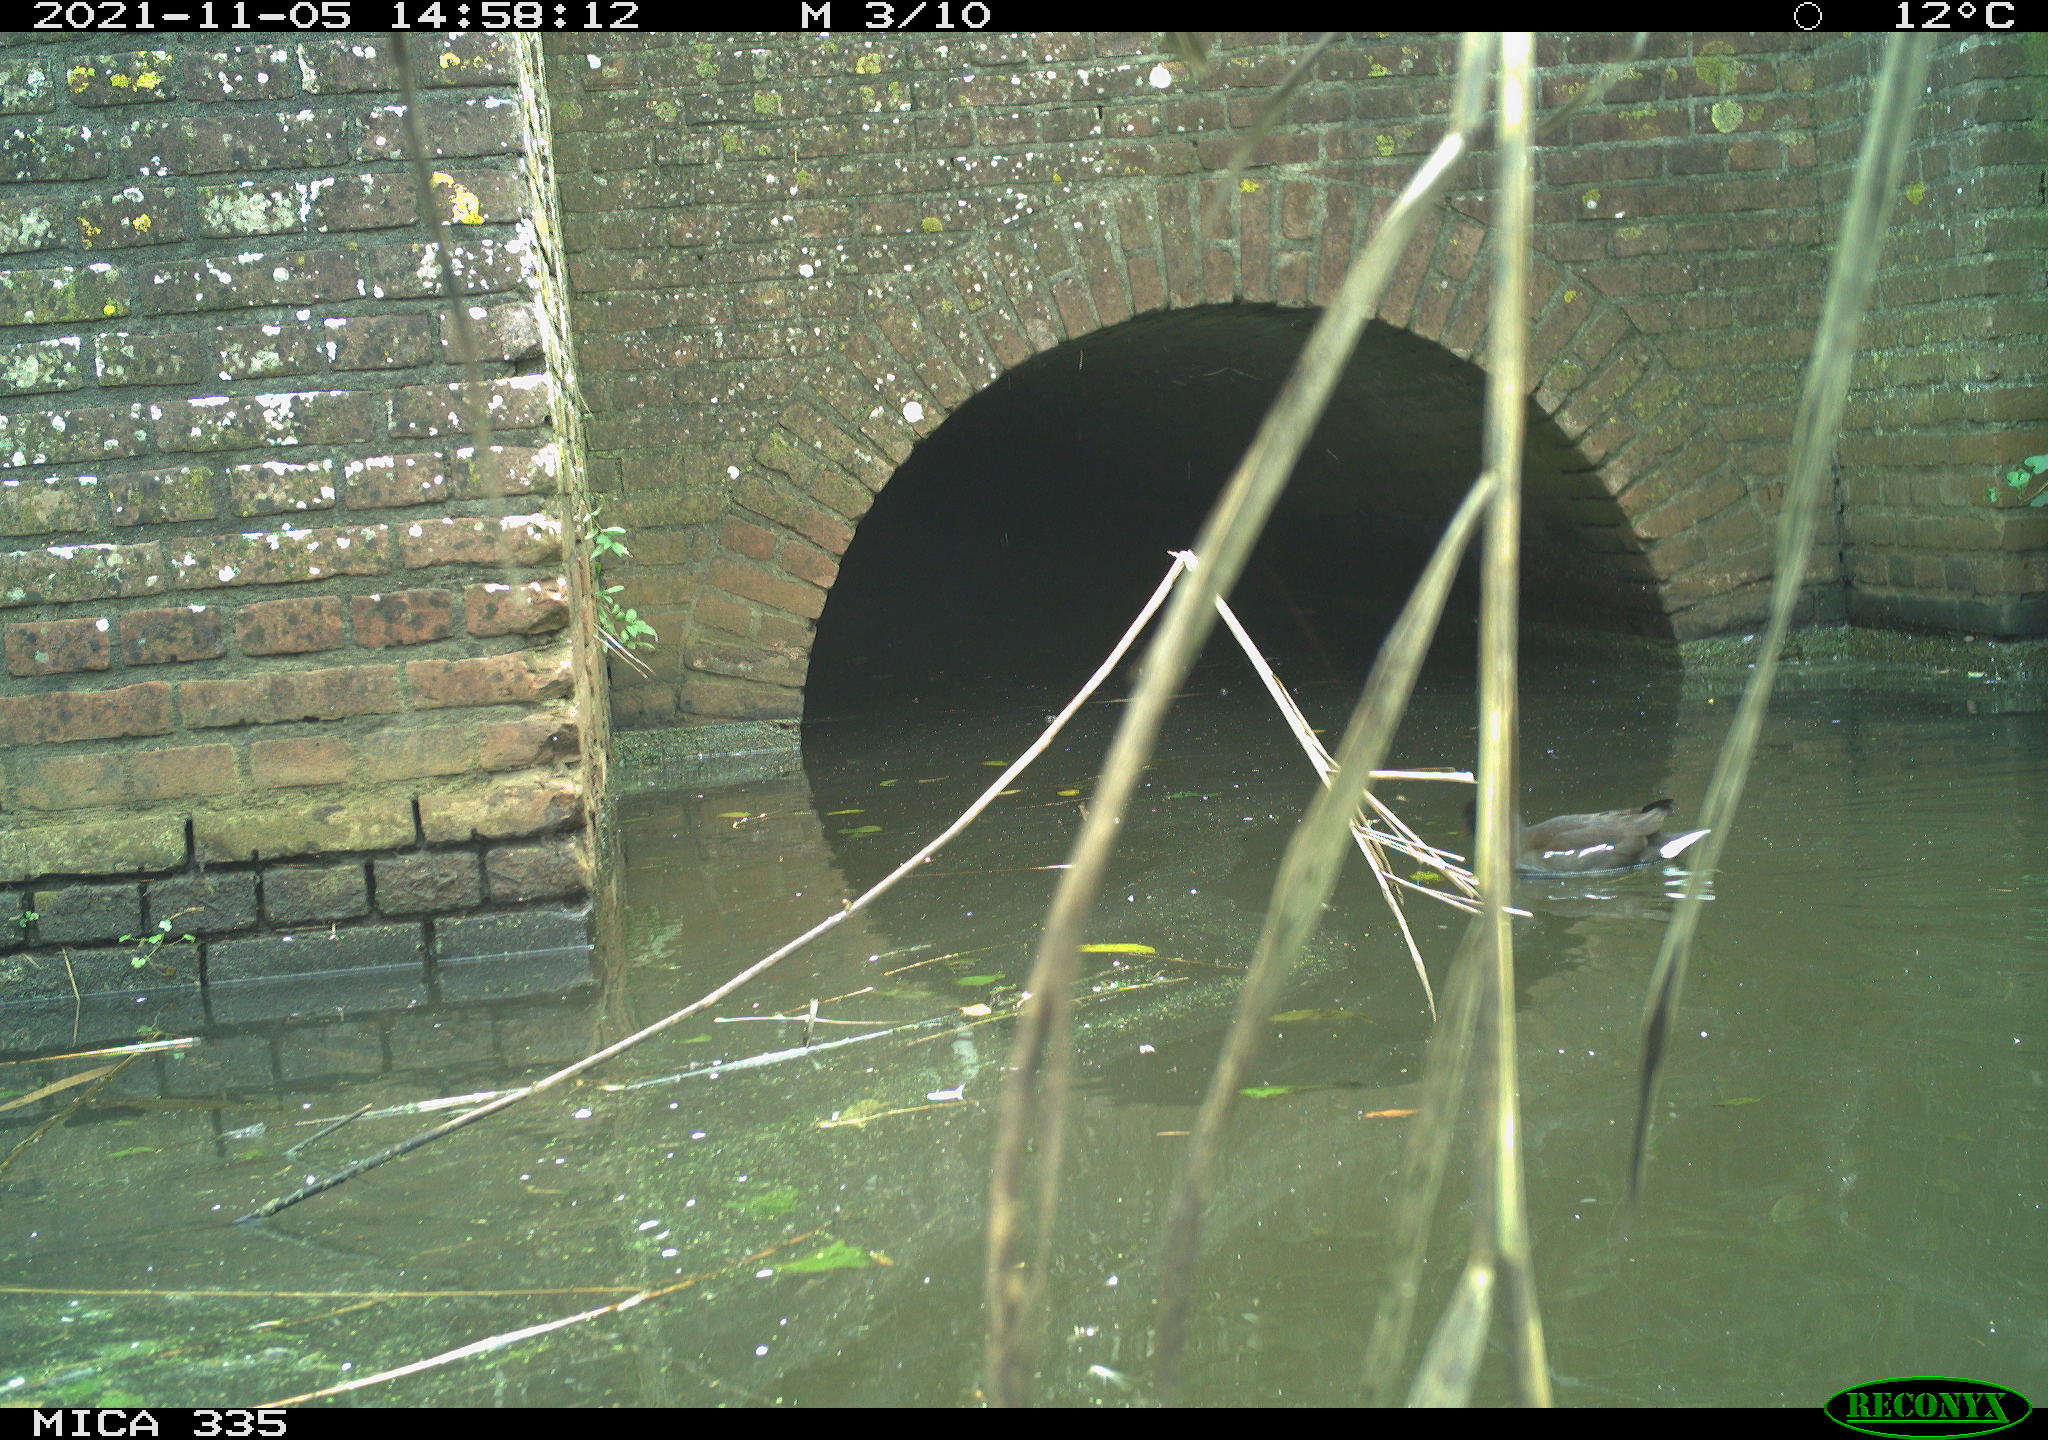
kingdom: Animalia
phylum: Chordata
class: Aves
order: Gruiformes
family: Rallidae
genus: Gallinula
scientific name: Gallinula chloropus
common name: Common moorhen
